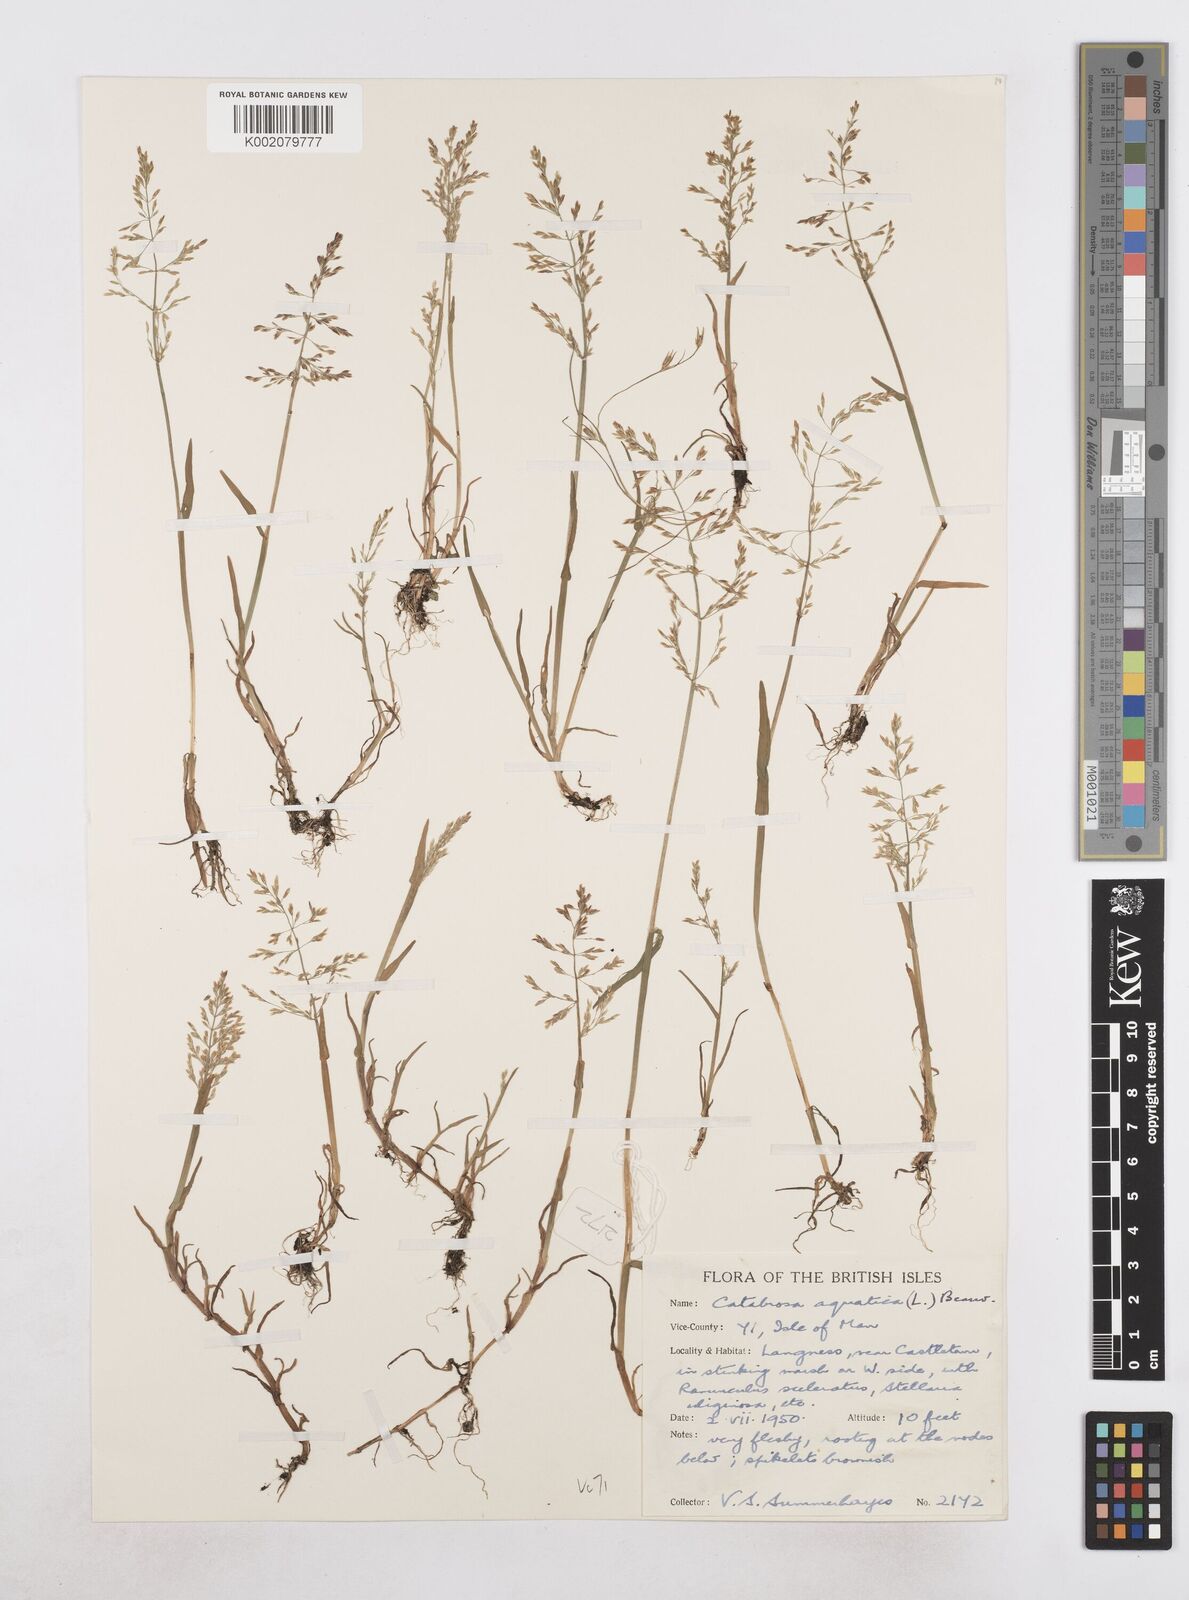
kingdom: Plantae
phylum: Tracheophyta
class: Liliopsida
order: Poales
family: Poaceae
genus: Catabrosa
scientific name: Catabrosa aquatica
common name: Whorl-grass
